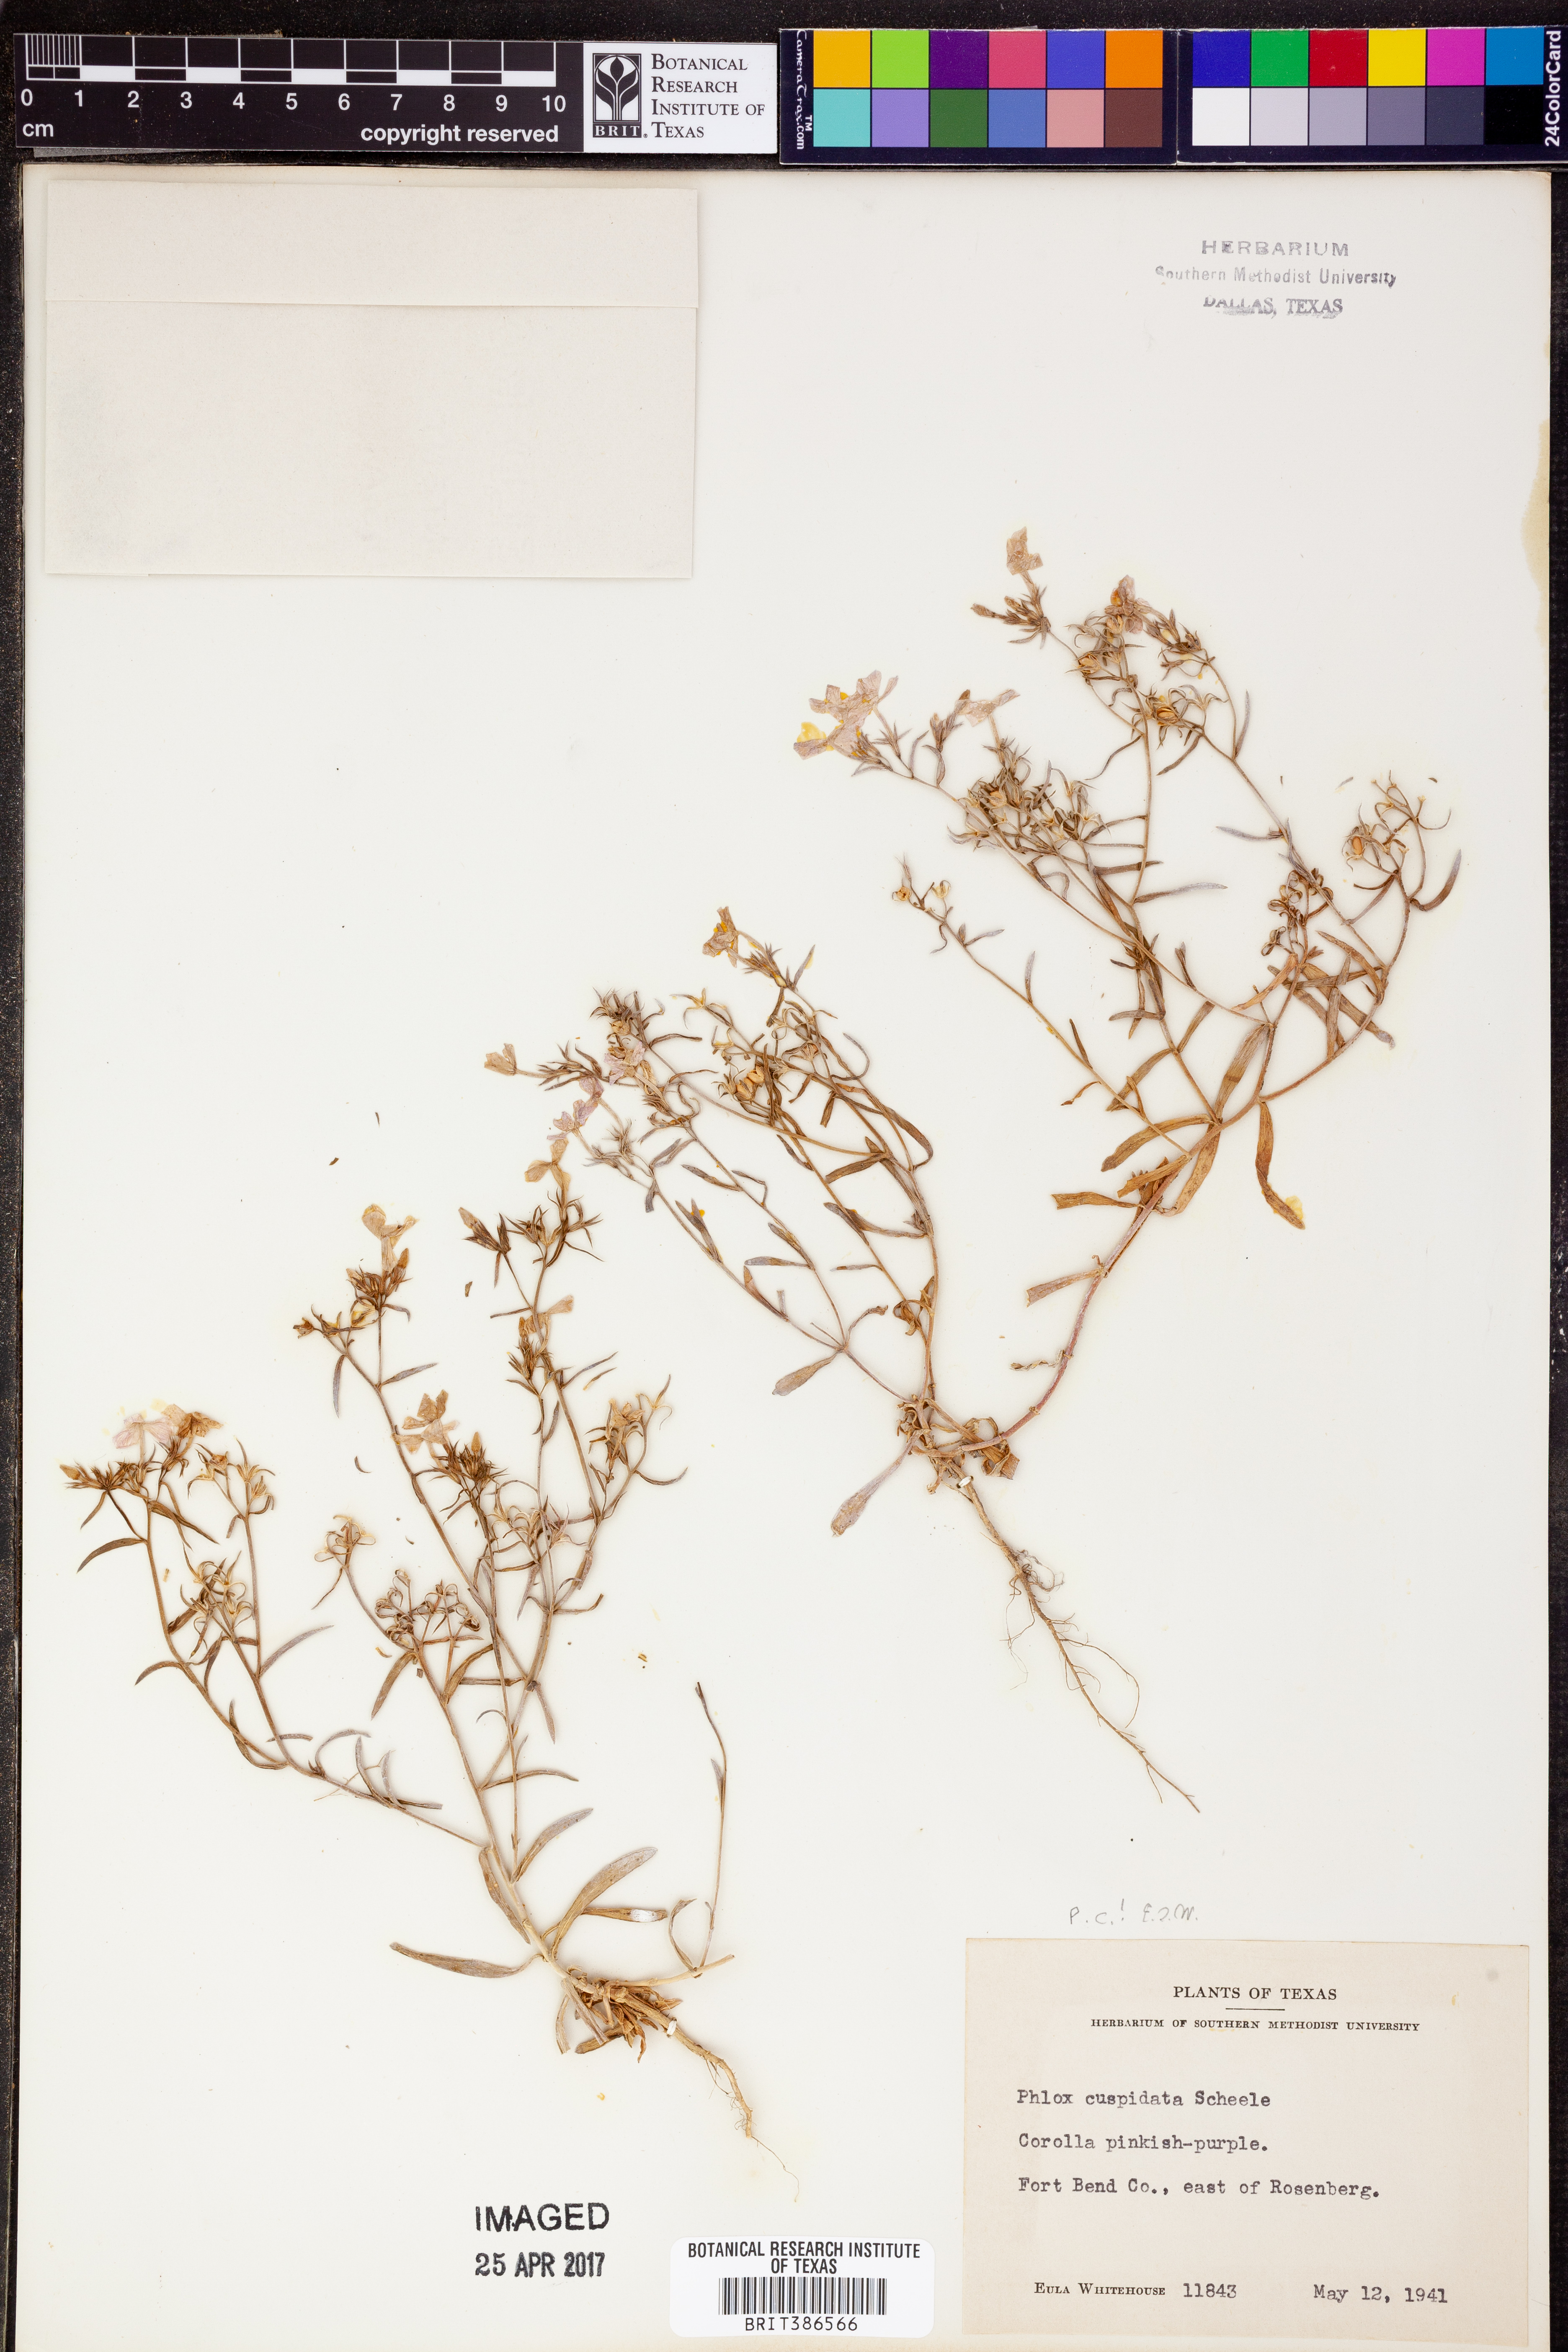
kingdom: Plantae
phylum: Tracheophyta
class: Magnoliopsida
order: Ericales
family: Polemoniaceae
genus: Phlox
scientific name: Phlox cuspidata
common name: Pointed phlox
